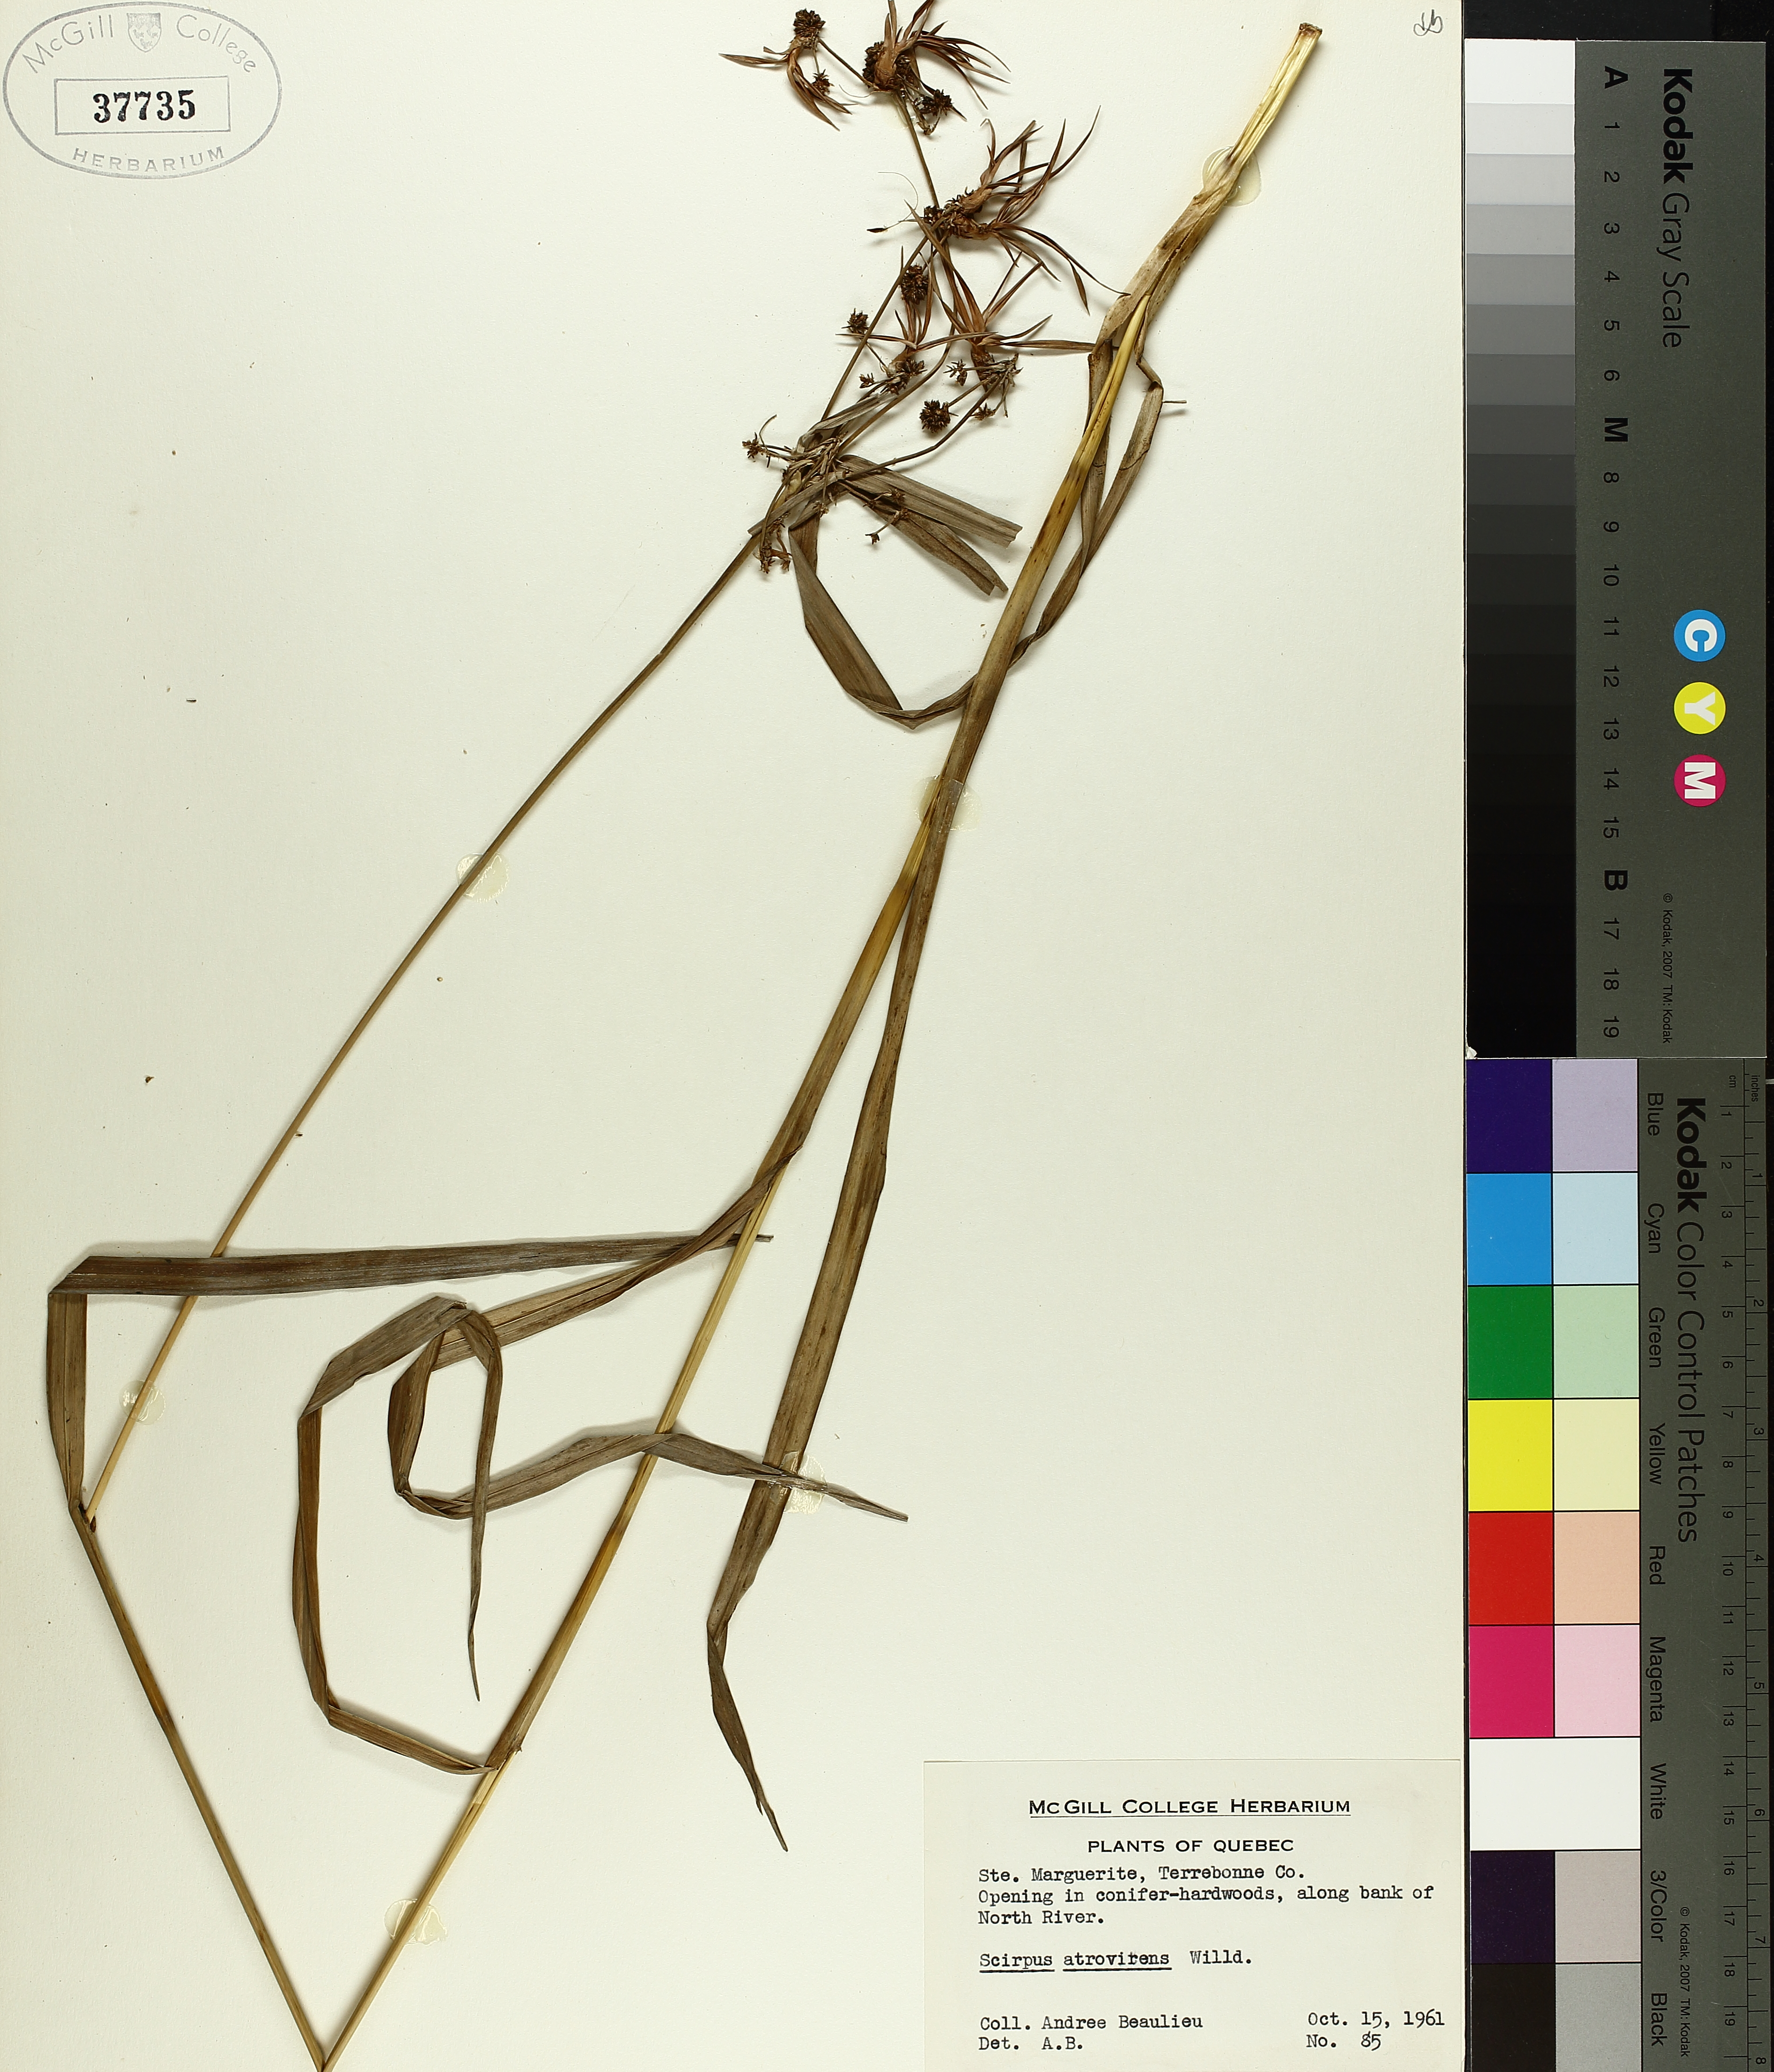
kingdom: Plantae
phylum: Tracheophyta
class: Liliopsida
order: Poales
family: Cyperaceae
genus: Scirpus
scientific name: Scirpus atrovirens
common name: Black bulrush
